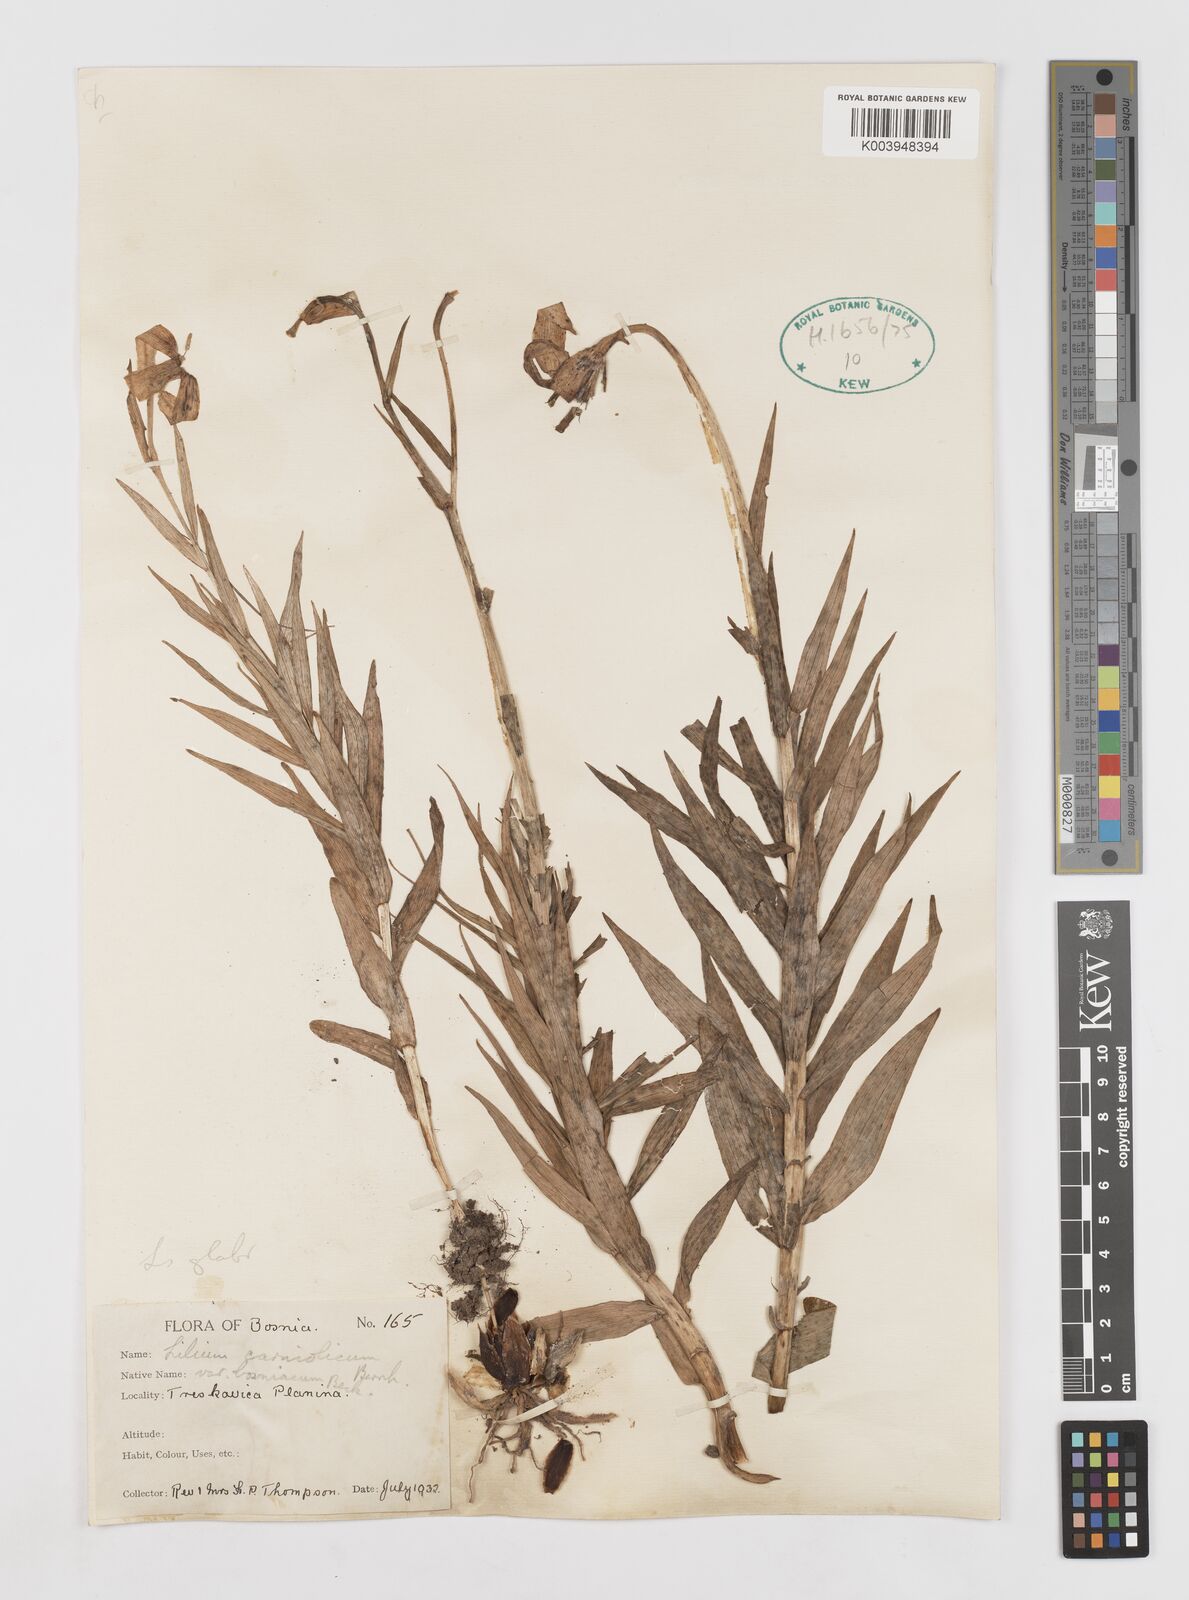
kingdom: Plantae
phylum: Tracheophyta
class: Liliopsida
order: Liliales
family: Liliaceae
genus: Lilium
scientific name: Lilium bosniacum
